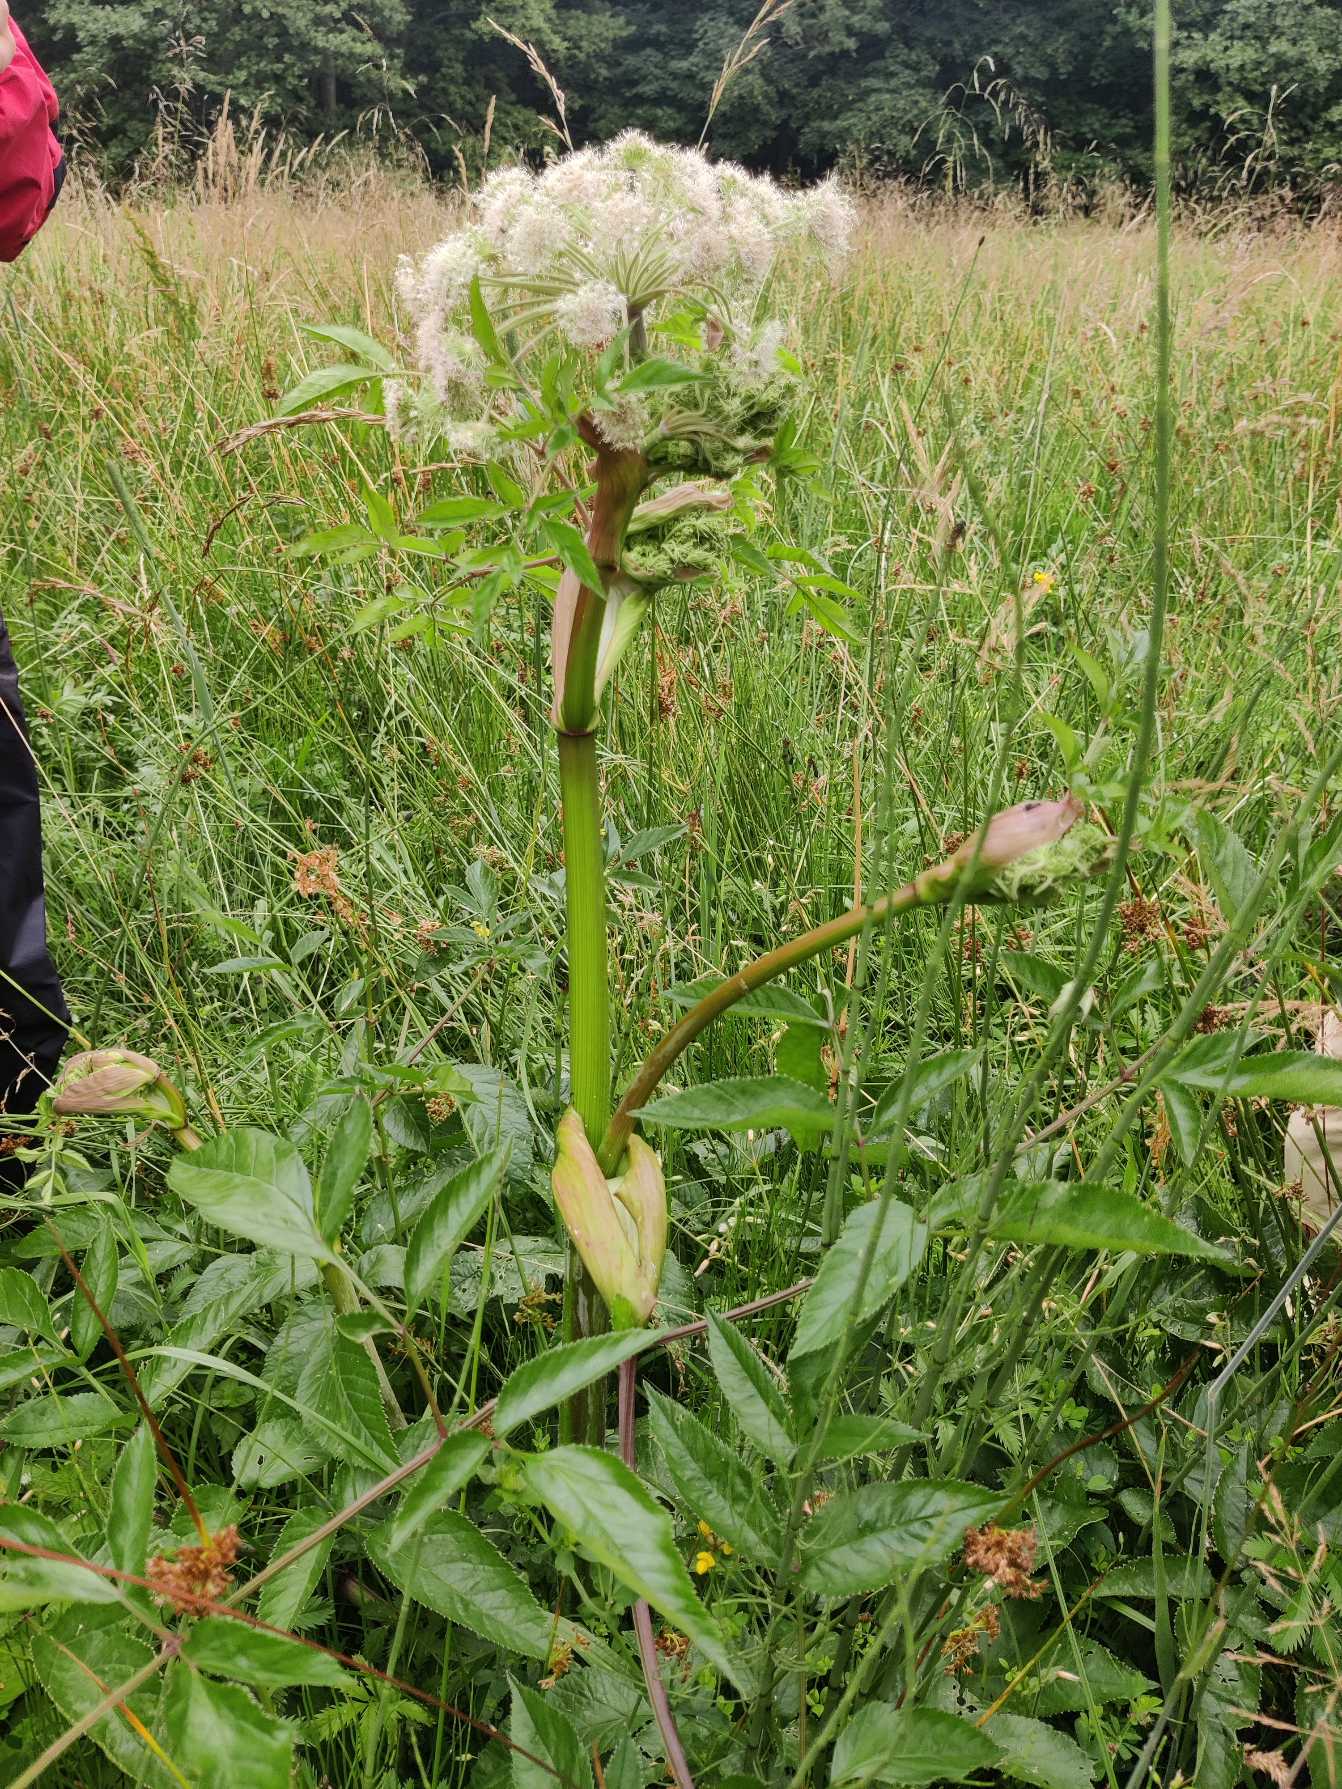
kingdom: Plantae
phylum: Tracheophyta
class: Magnoliopsida
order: Apiales
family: Apiaceae
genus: Angelica
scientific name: Angelica sylvestris
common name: Angelik
